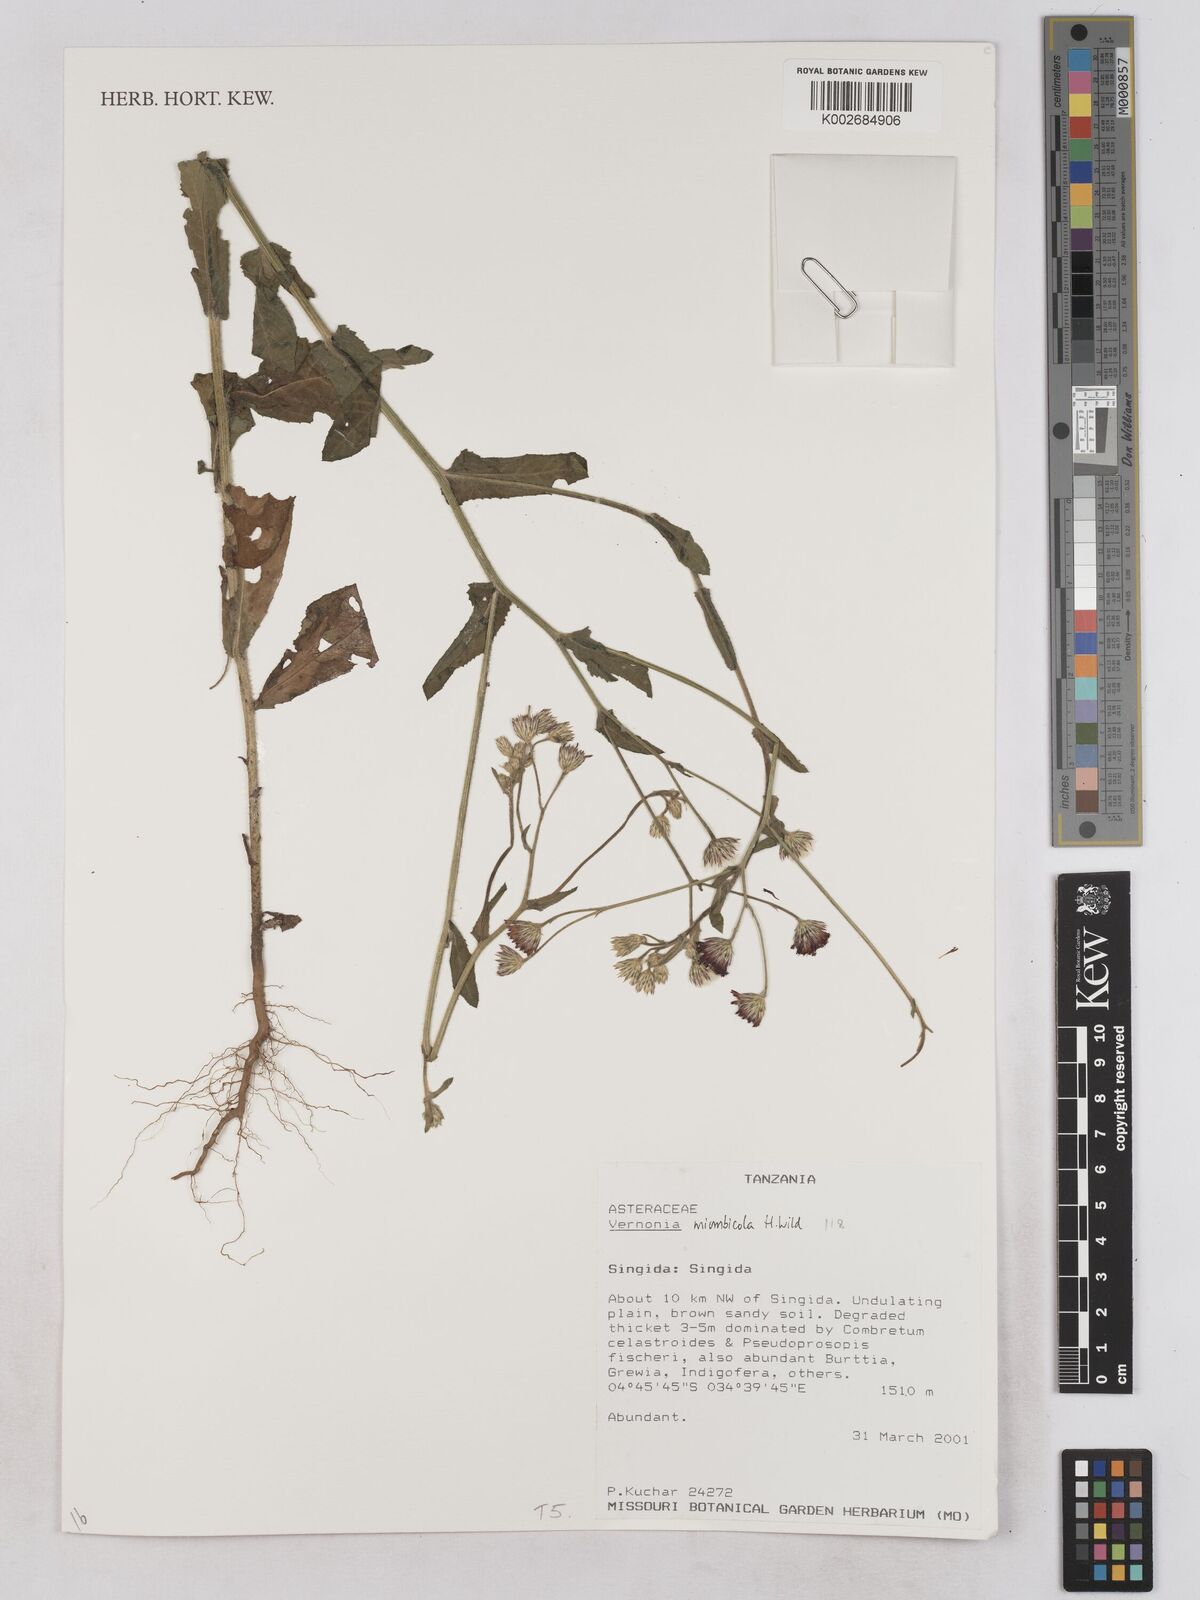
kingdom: Plantae
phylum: Tracheophyta
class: Magnoliopsida
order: Asterales
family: Asteraceae
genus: Vernonia
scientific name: Vernonia miombicola
